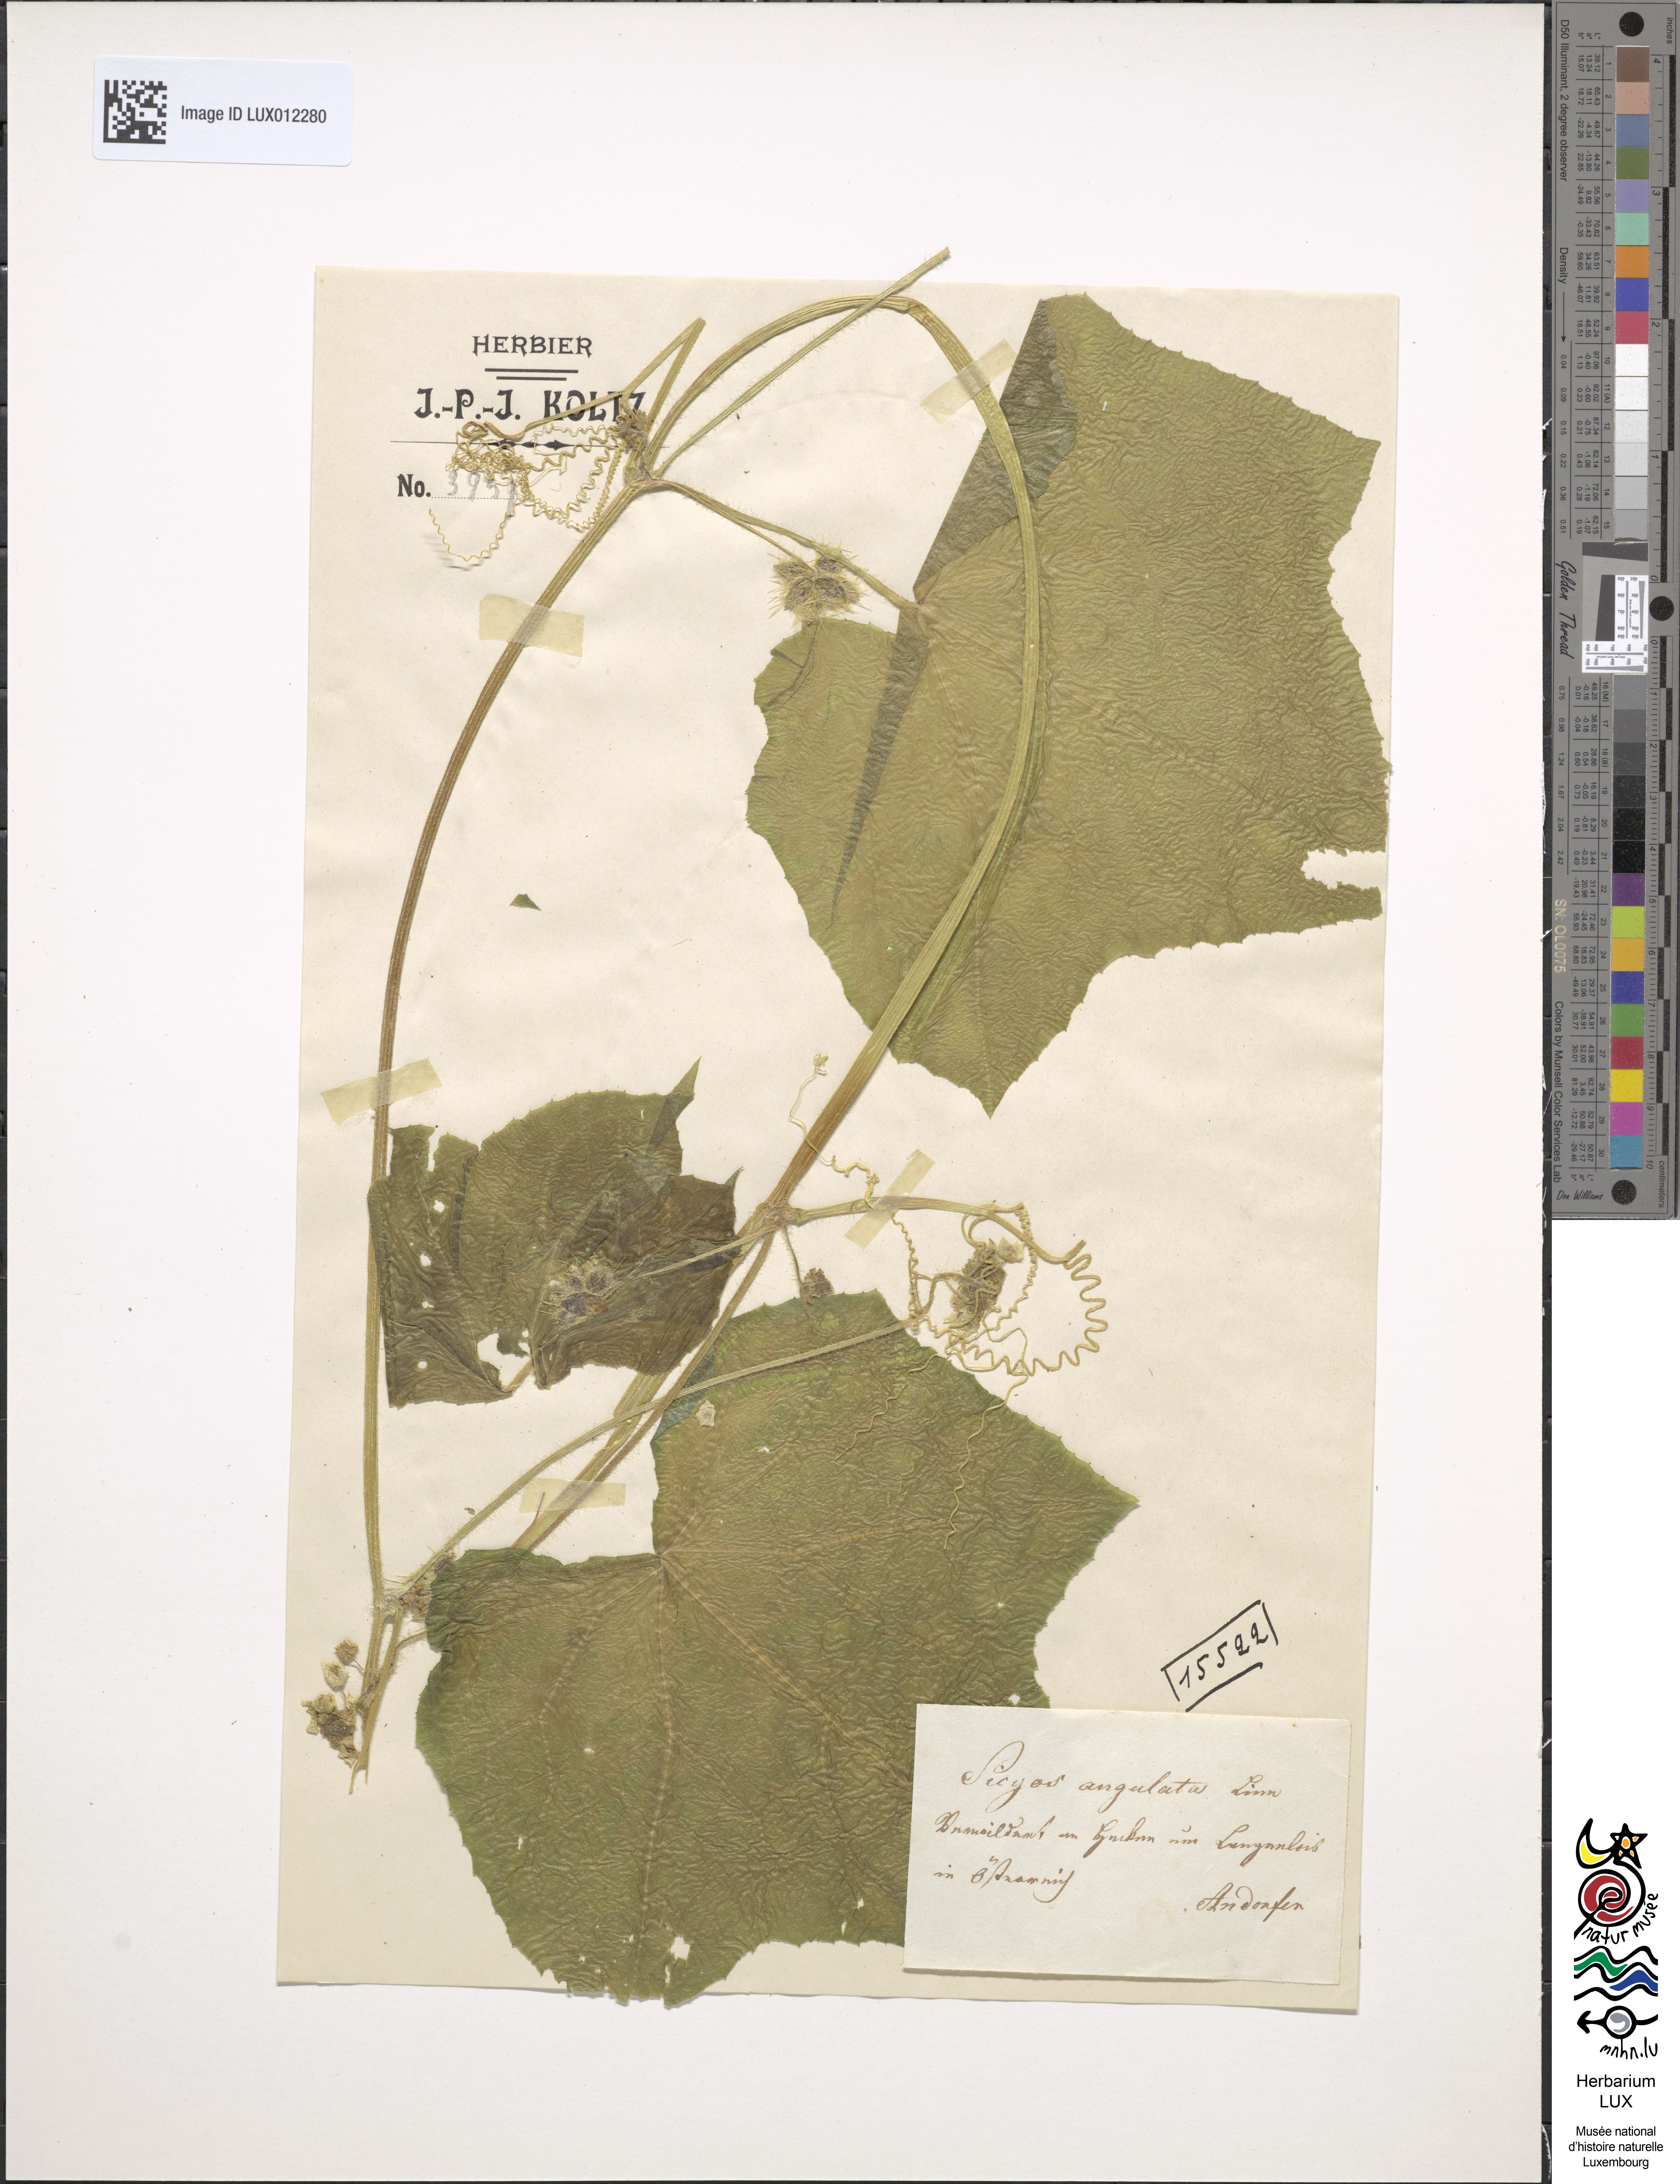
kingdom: Plantae
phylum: Tracheophyta
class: Magnoliopsida
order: Cucurbitales
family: Cucurbitaceae
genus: Sicyos
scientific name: Sicyos angulatus
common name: Angled burr cucumber
